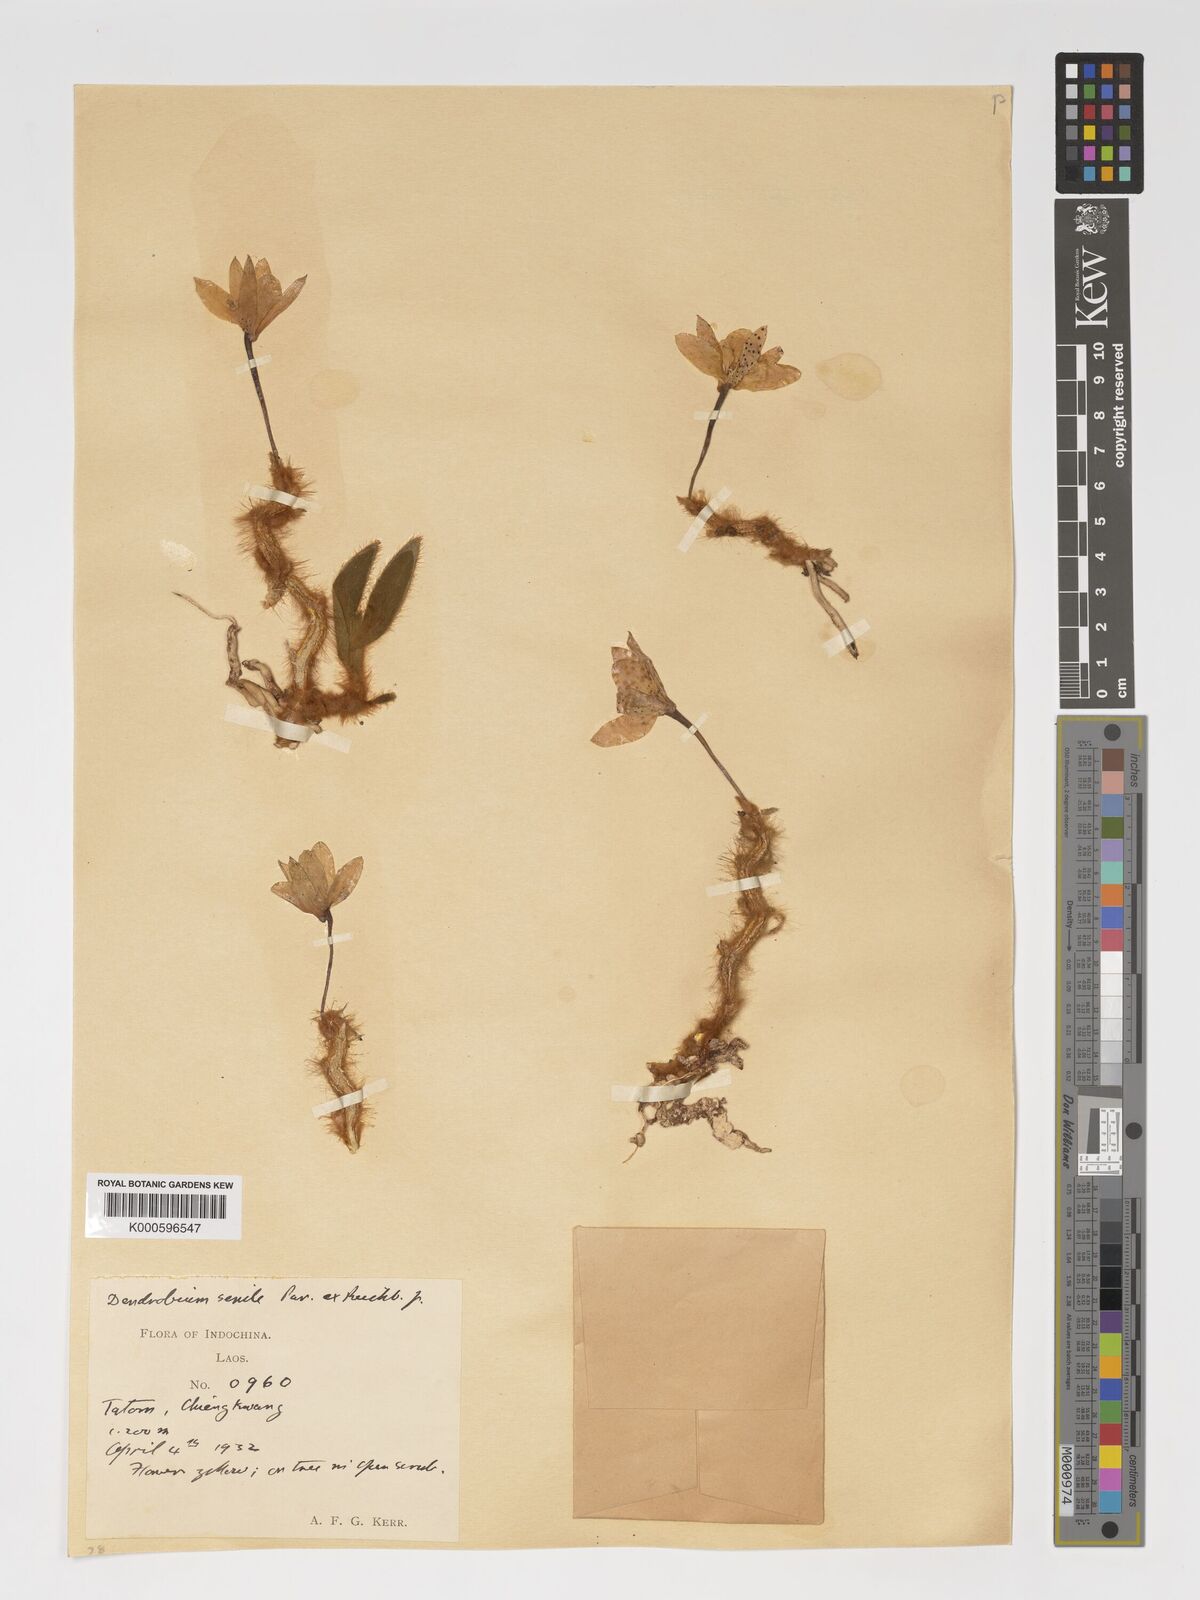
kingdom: Plantae
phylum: Tracheophyta
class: Liliopsida
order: Asparagales
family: Orchidaceae
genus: Dendrobium
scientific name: Dendrobium senile
